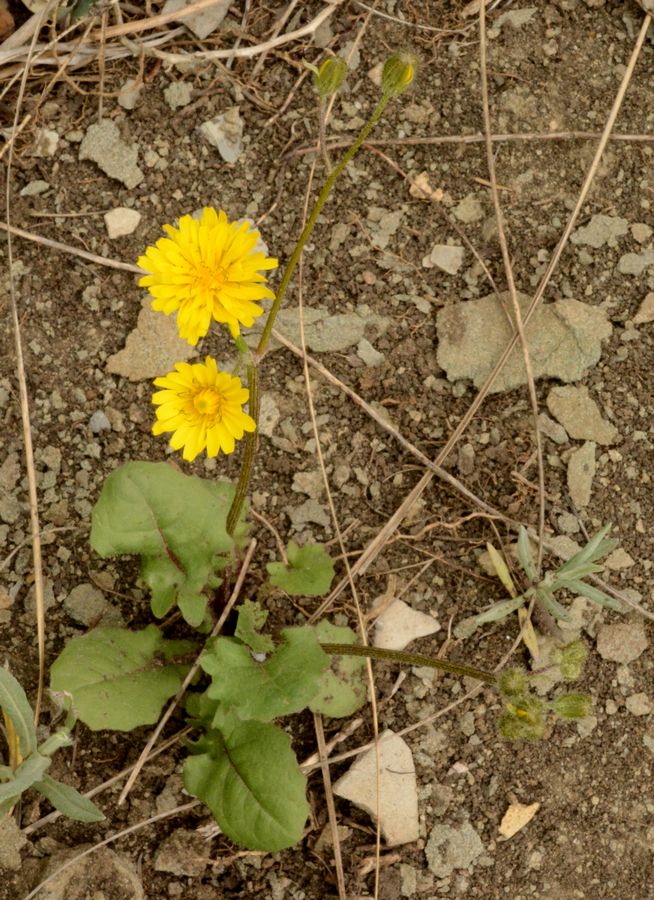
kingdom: Plantae
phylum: Tracheophyta
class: Magnoliopsida
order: Asterales
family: Asteraceae
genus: Crepis
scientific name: Crepis sancta
